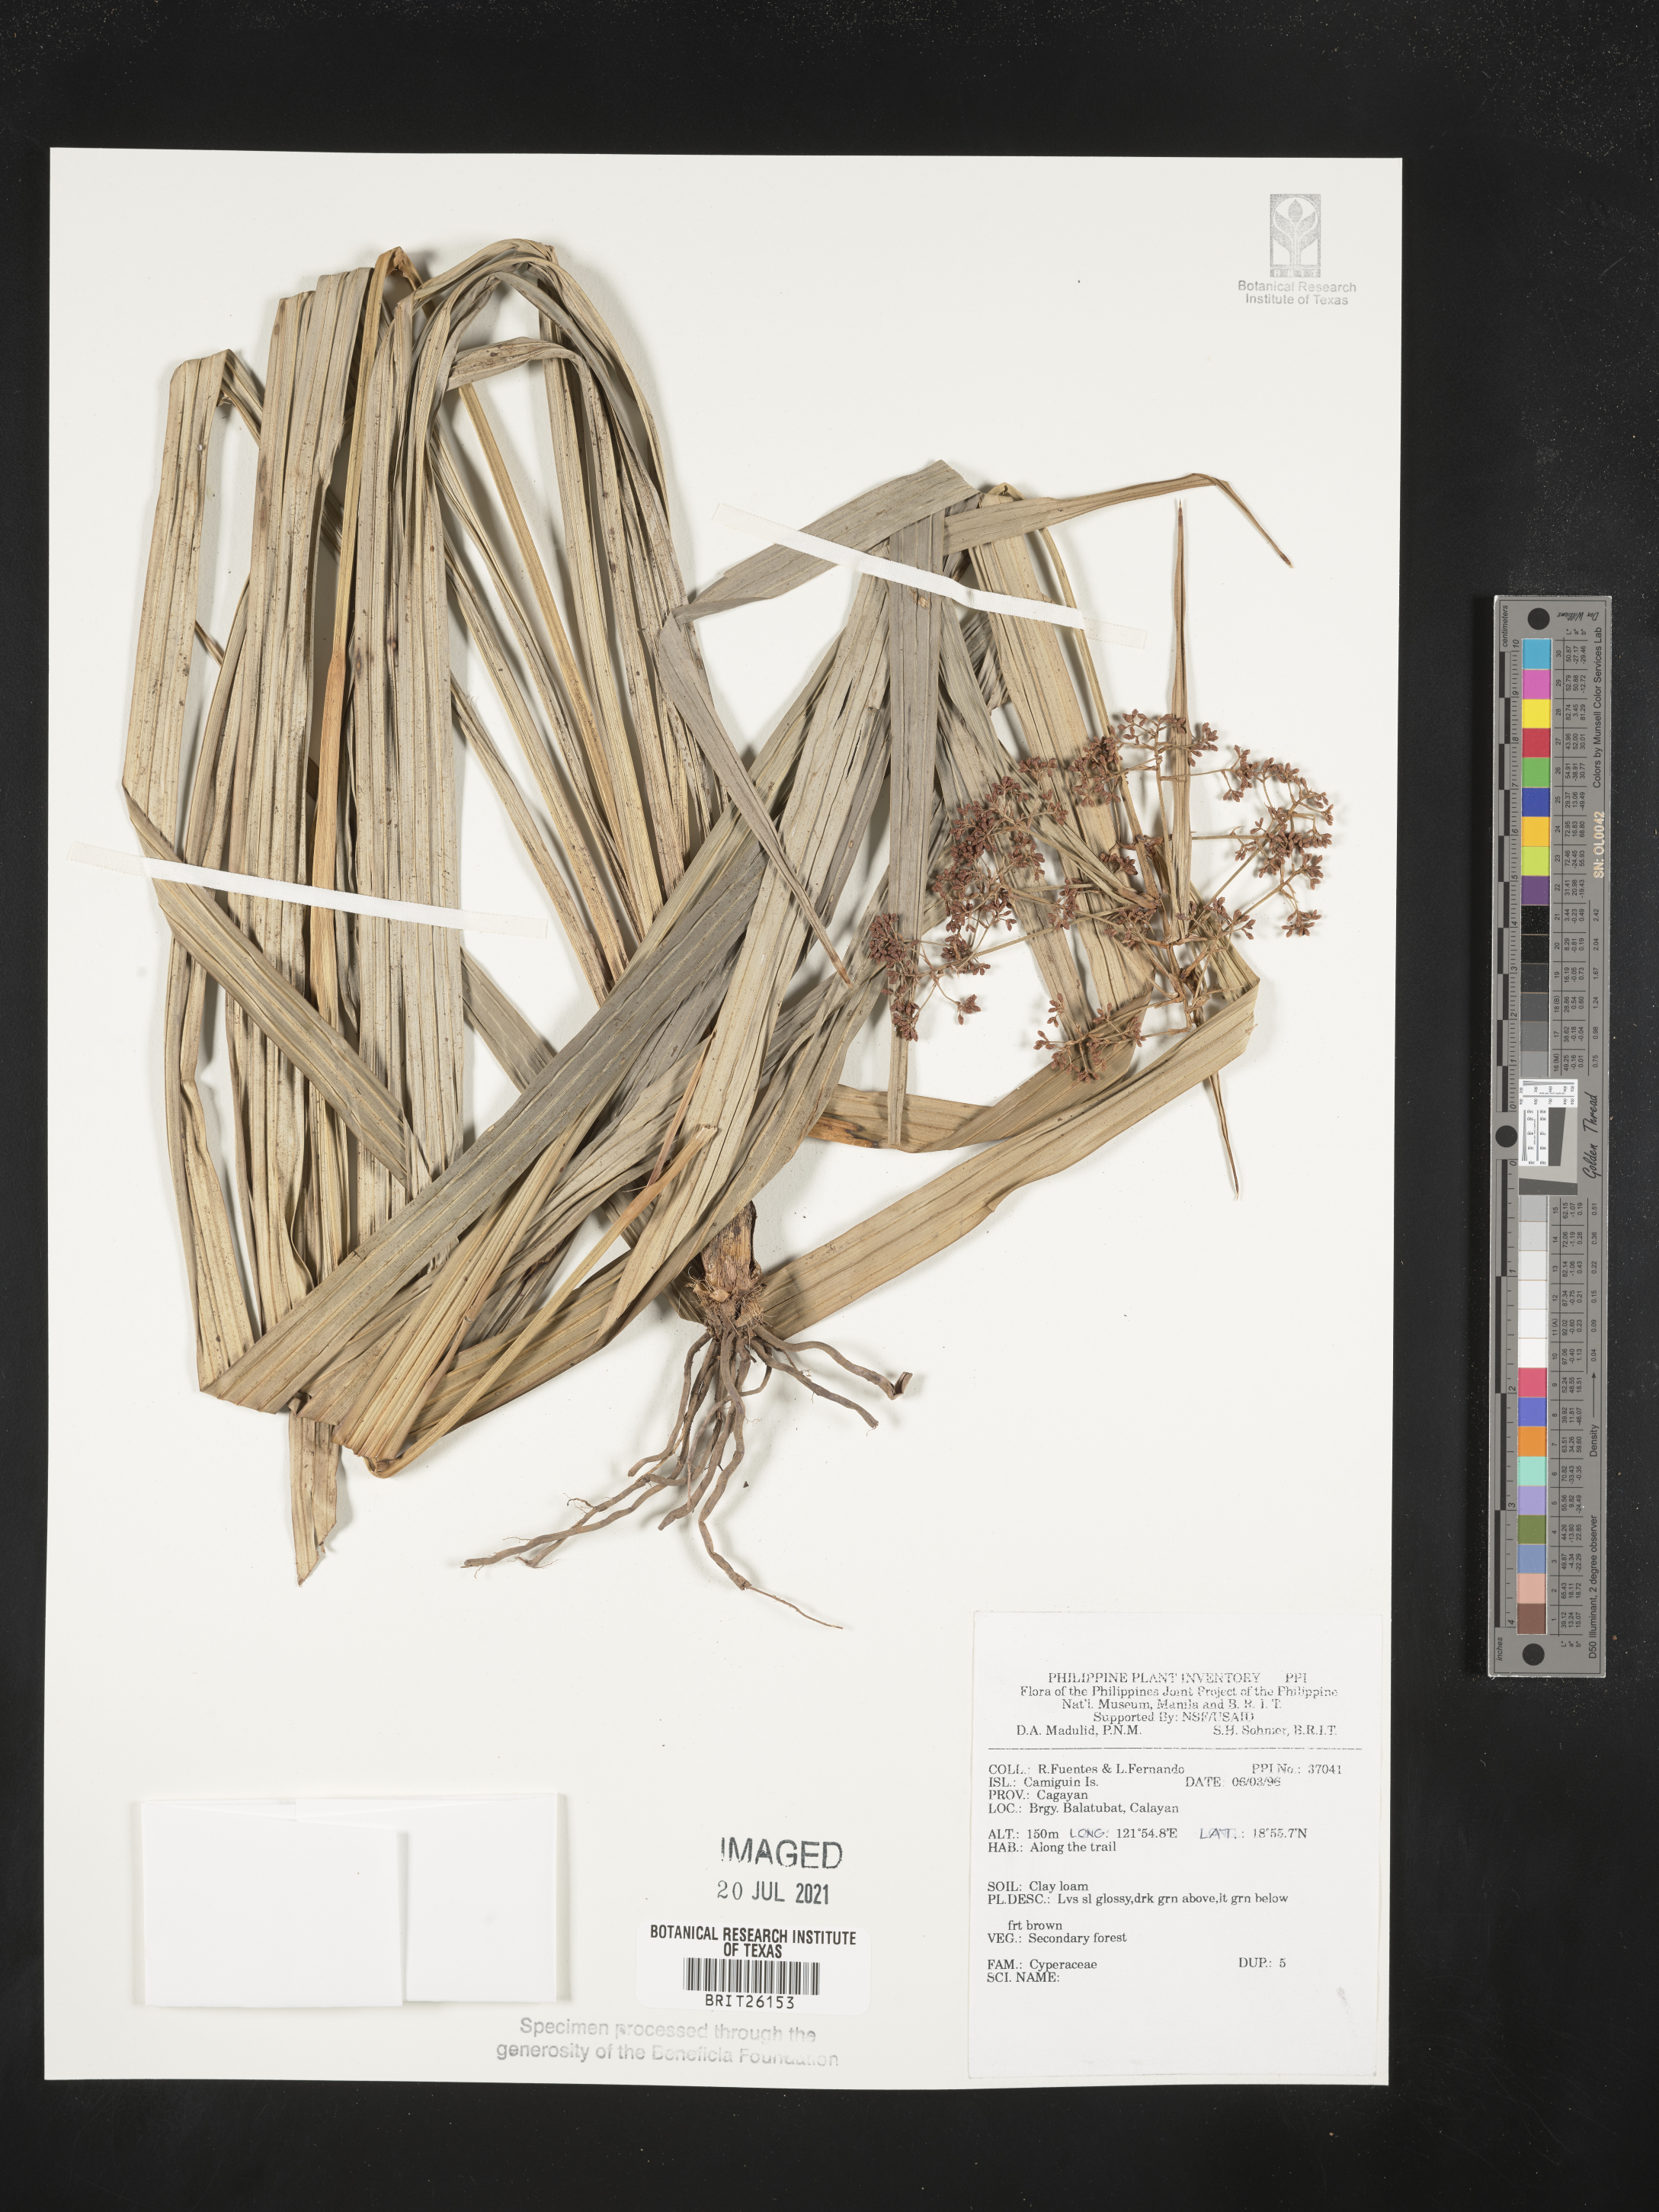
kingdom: Plantae
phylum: Tracheophyta
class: Liliopsida
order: Poales
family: Cyperaceae
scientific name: Cyperaceae
